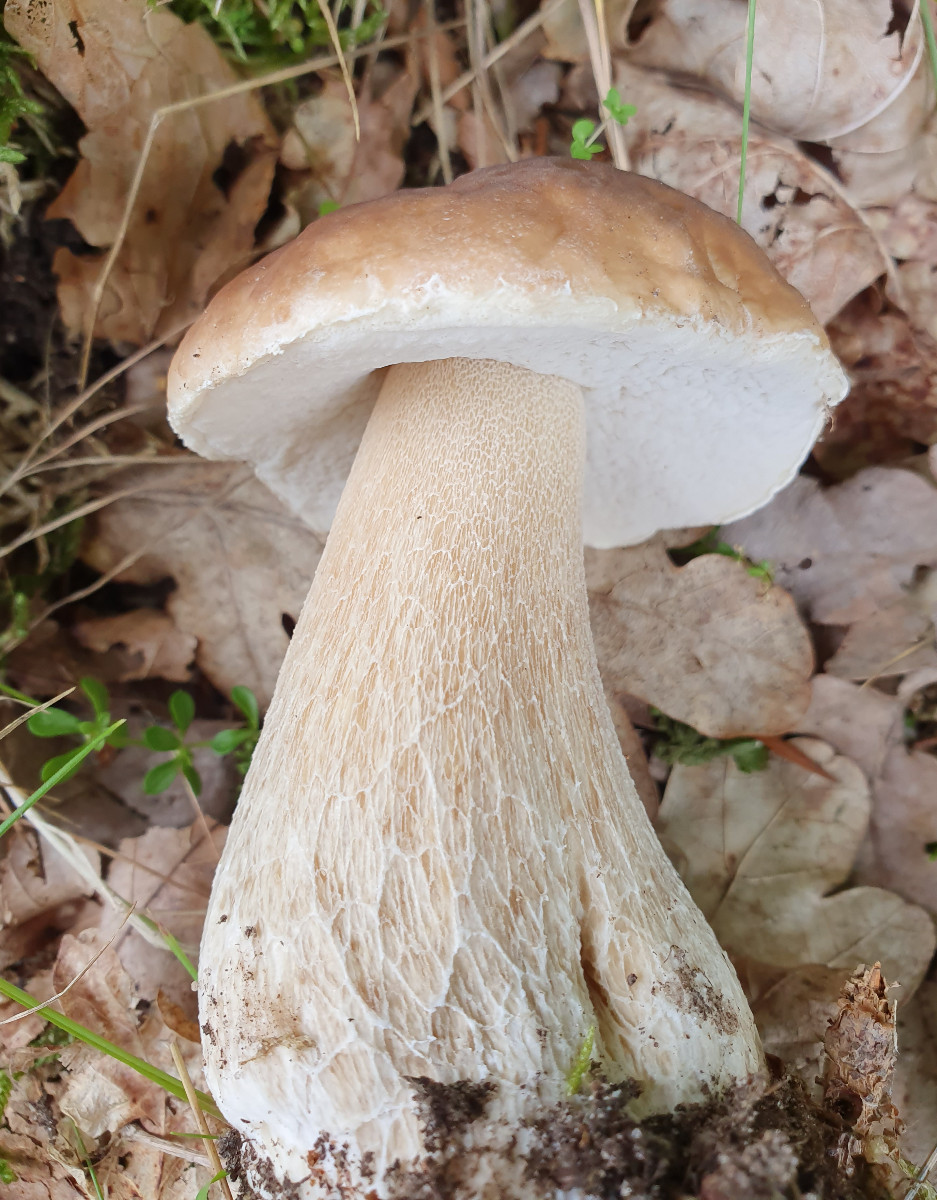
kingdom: Fungi
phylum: Basidiomycota
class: Agaricomycetes
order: Boletales
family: Boletaceae
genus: Boletus
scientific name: Boletus reticulatus
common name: sommer-rørhat
